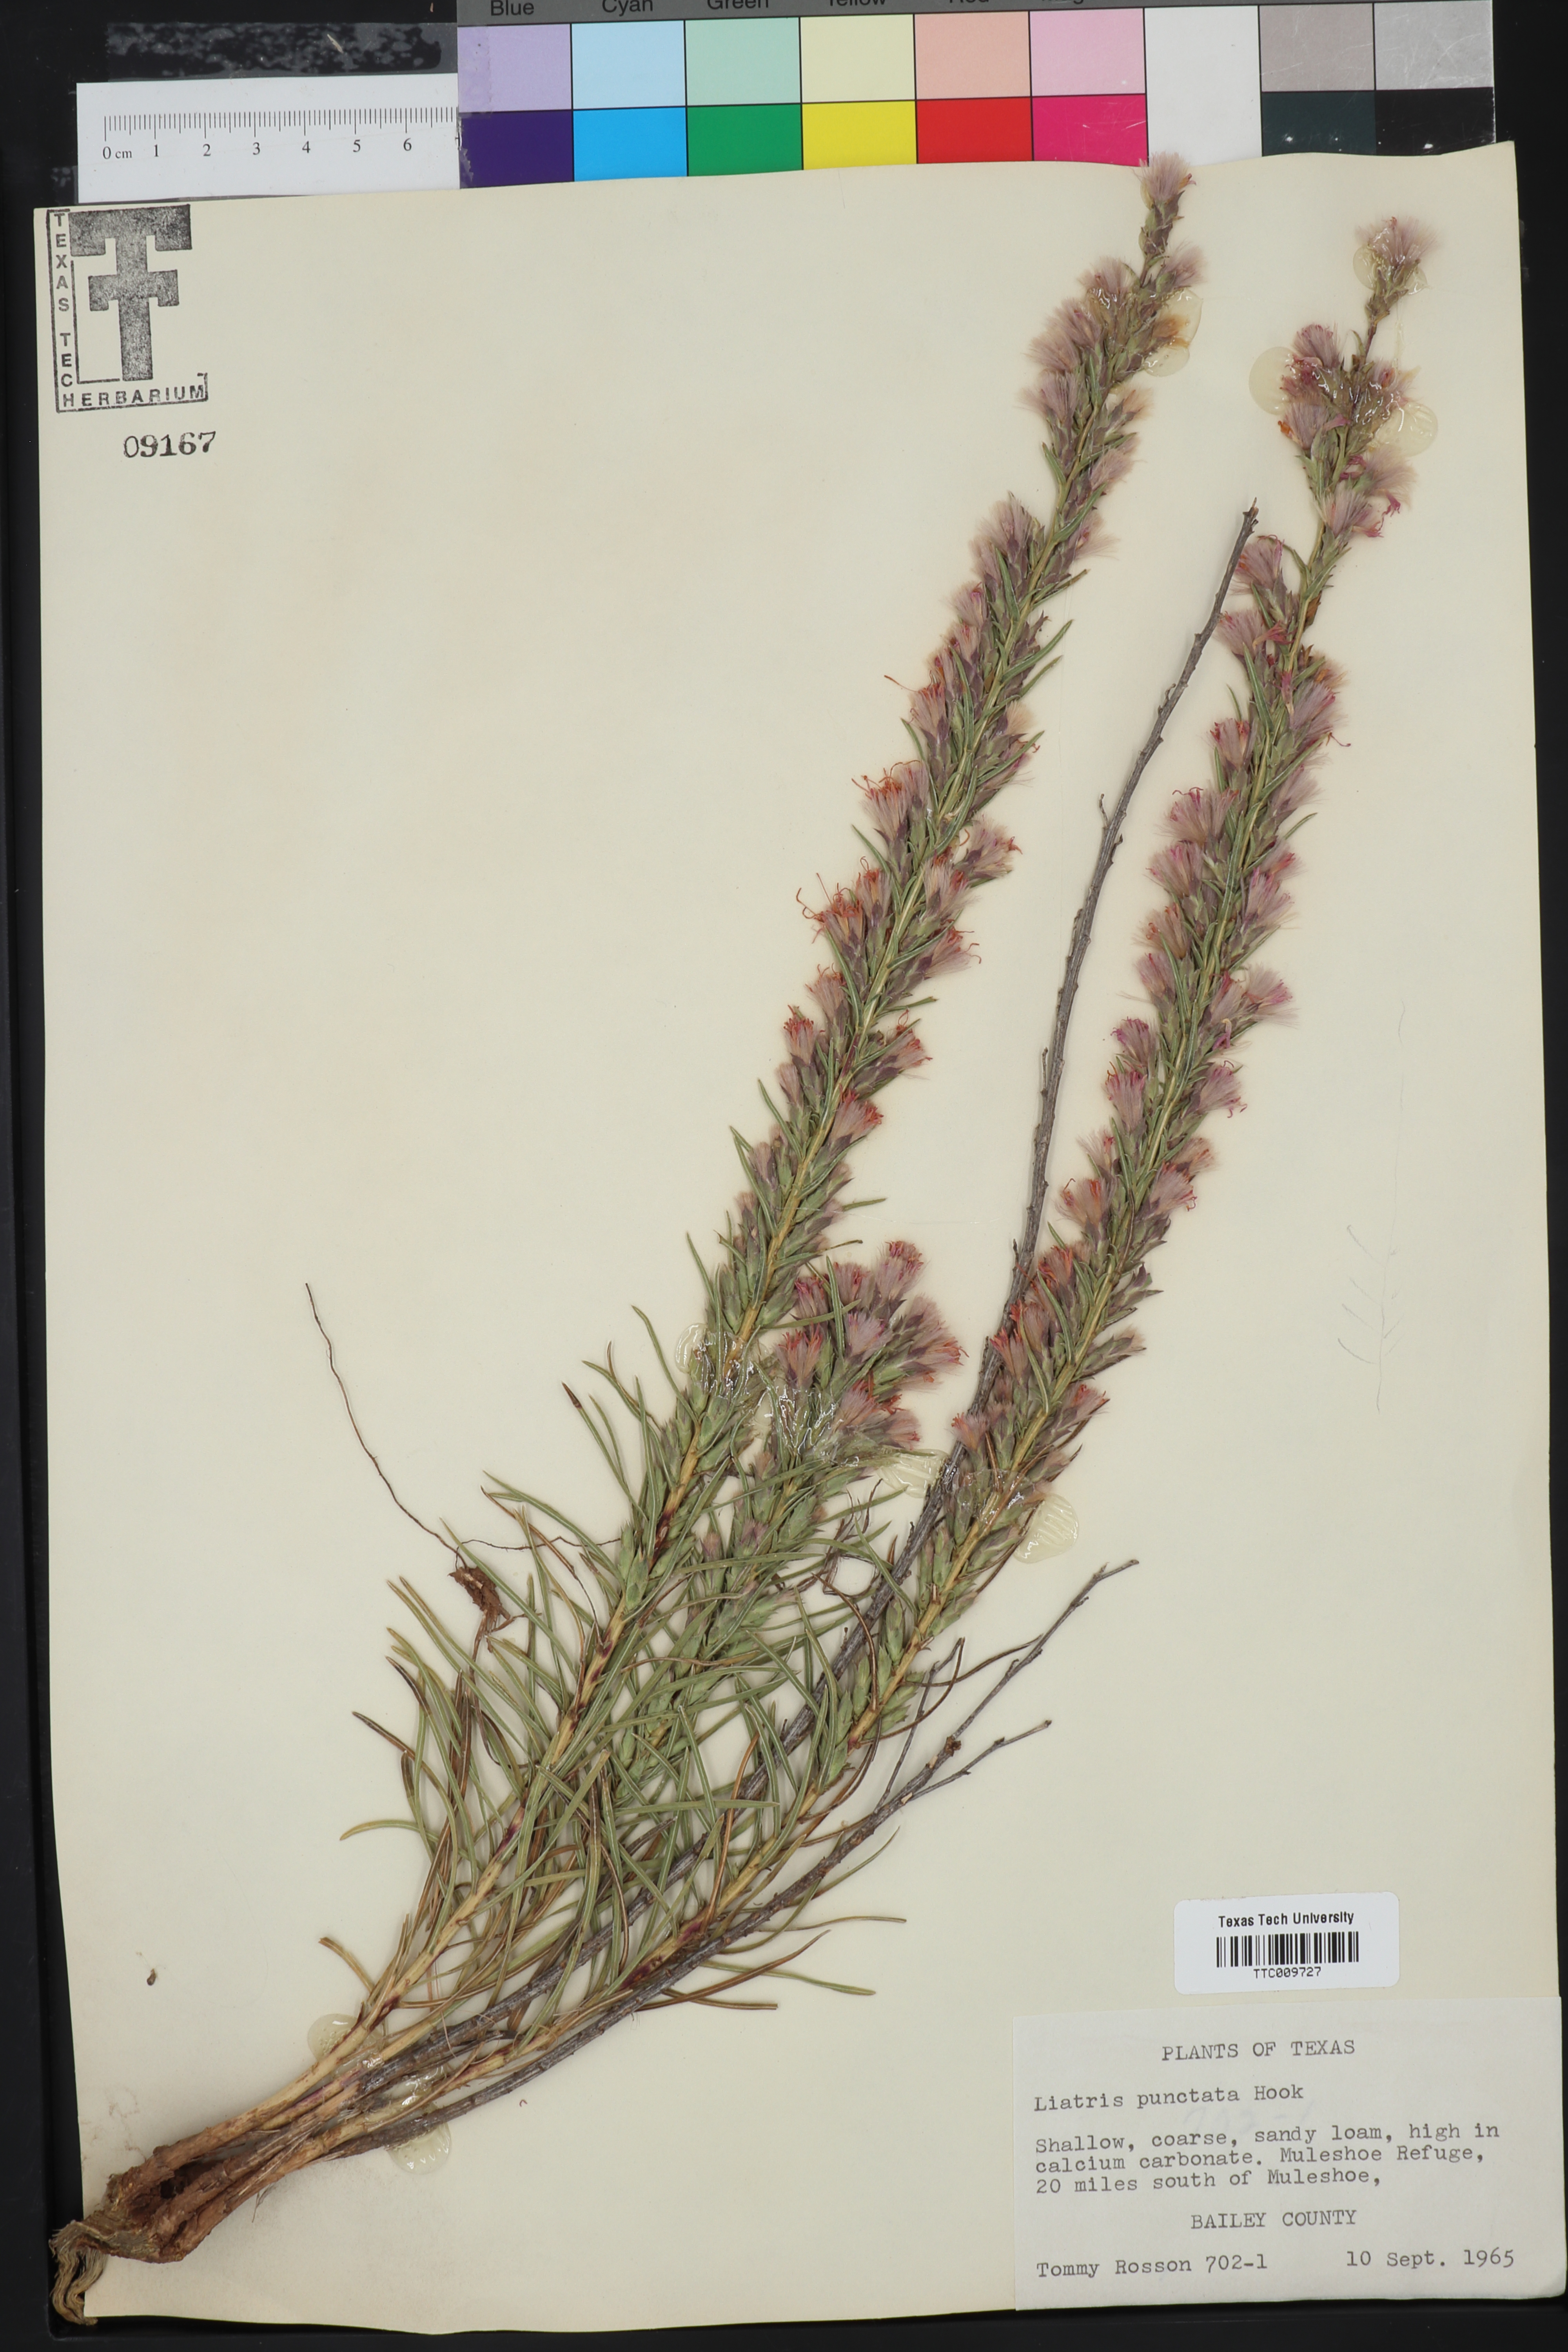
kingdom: Plantae
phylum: Tracheophyta
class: Magnoliopsida
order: Asterales
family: Asteraceae
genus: Liatris
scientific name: Liatris punctata
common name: Dotted gayfeather
